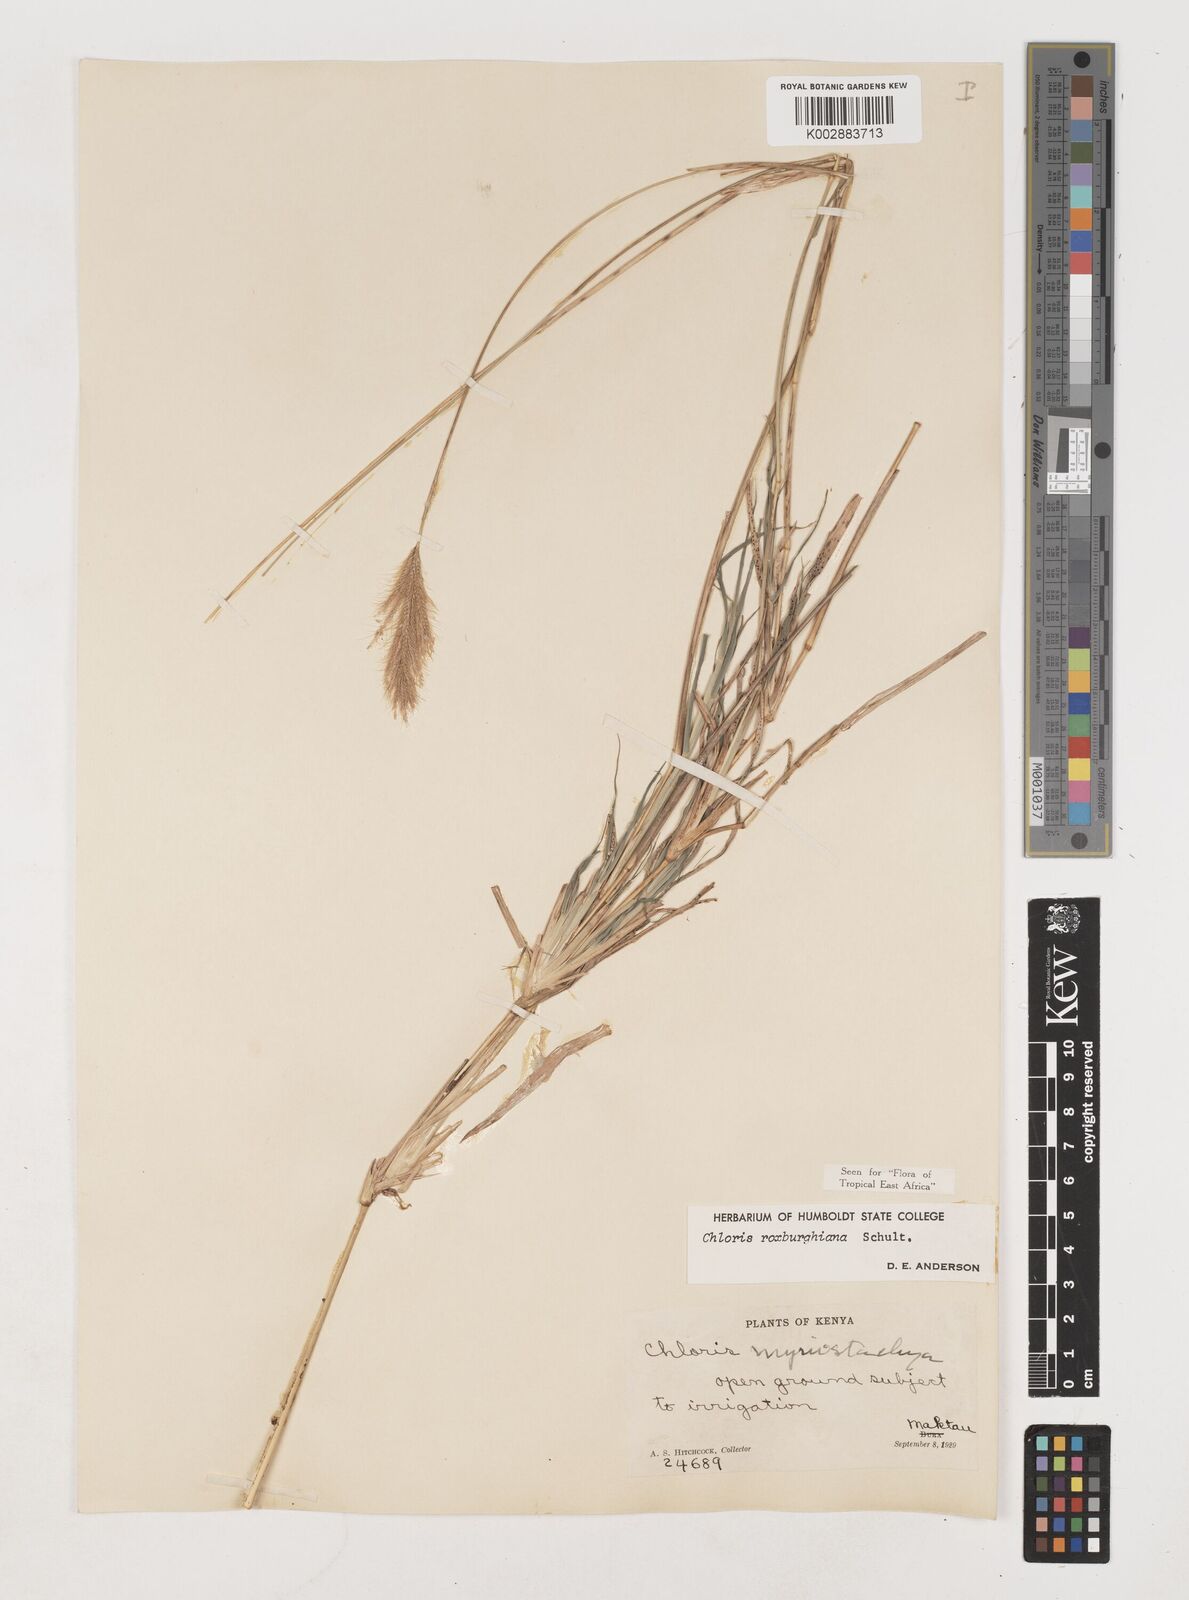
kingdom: Plantae
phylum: Tracheophyta
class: Liliopsida
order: Poales
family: Poaceae
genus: Tetrapogon
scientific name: Tetrapogon roxburghiana
